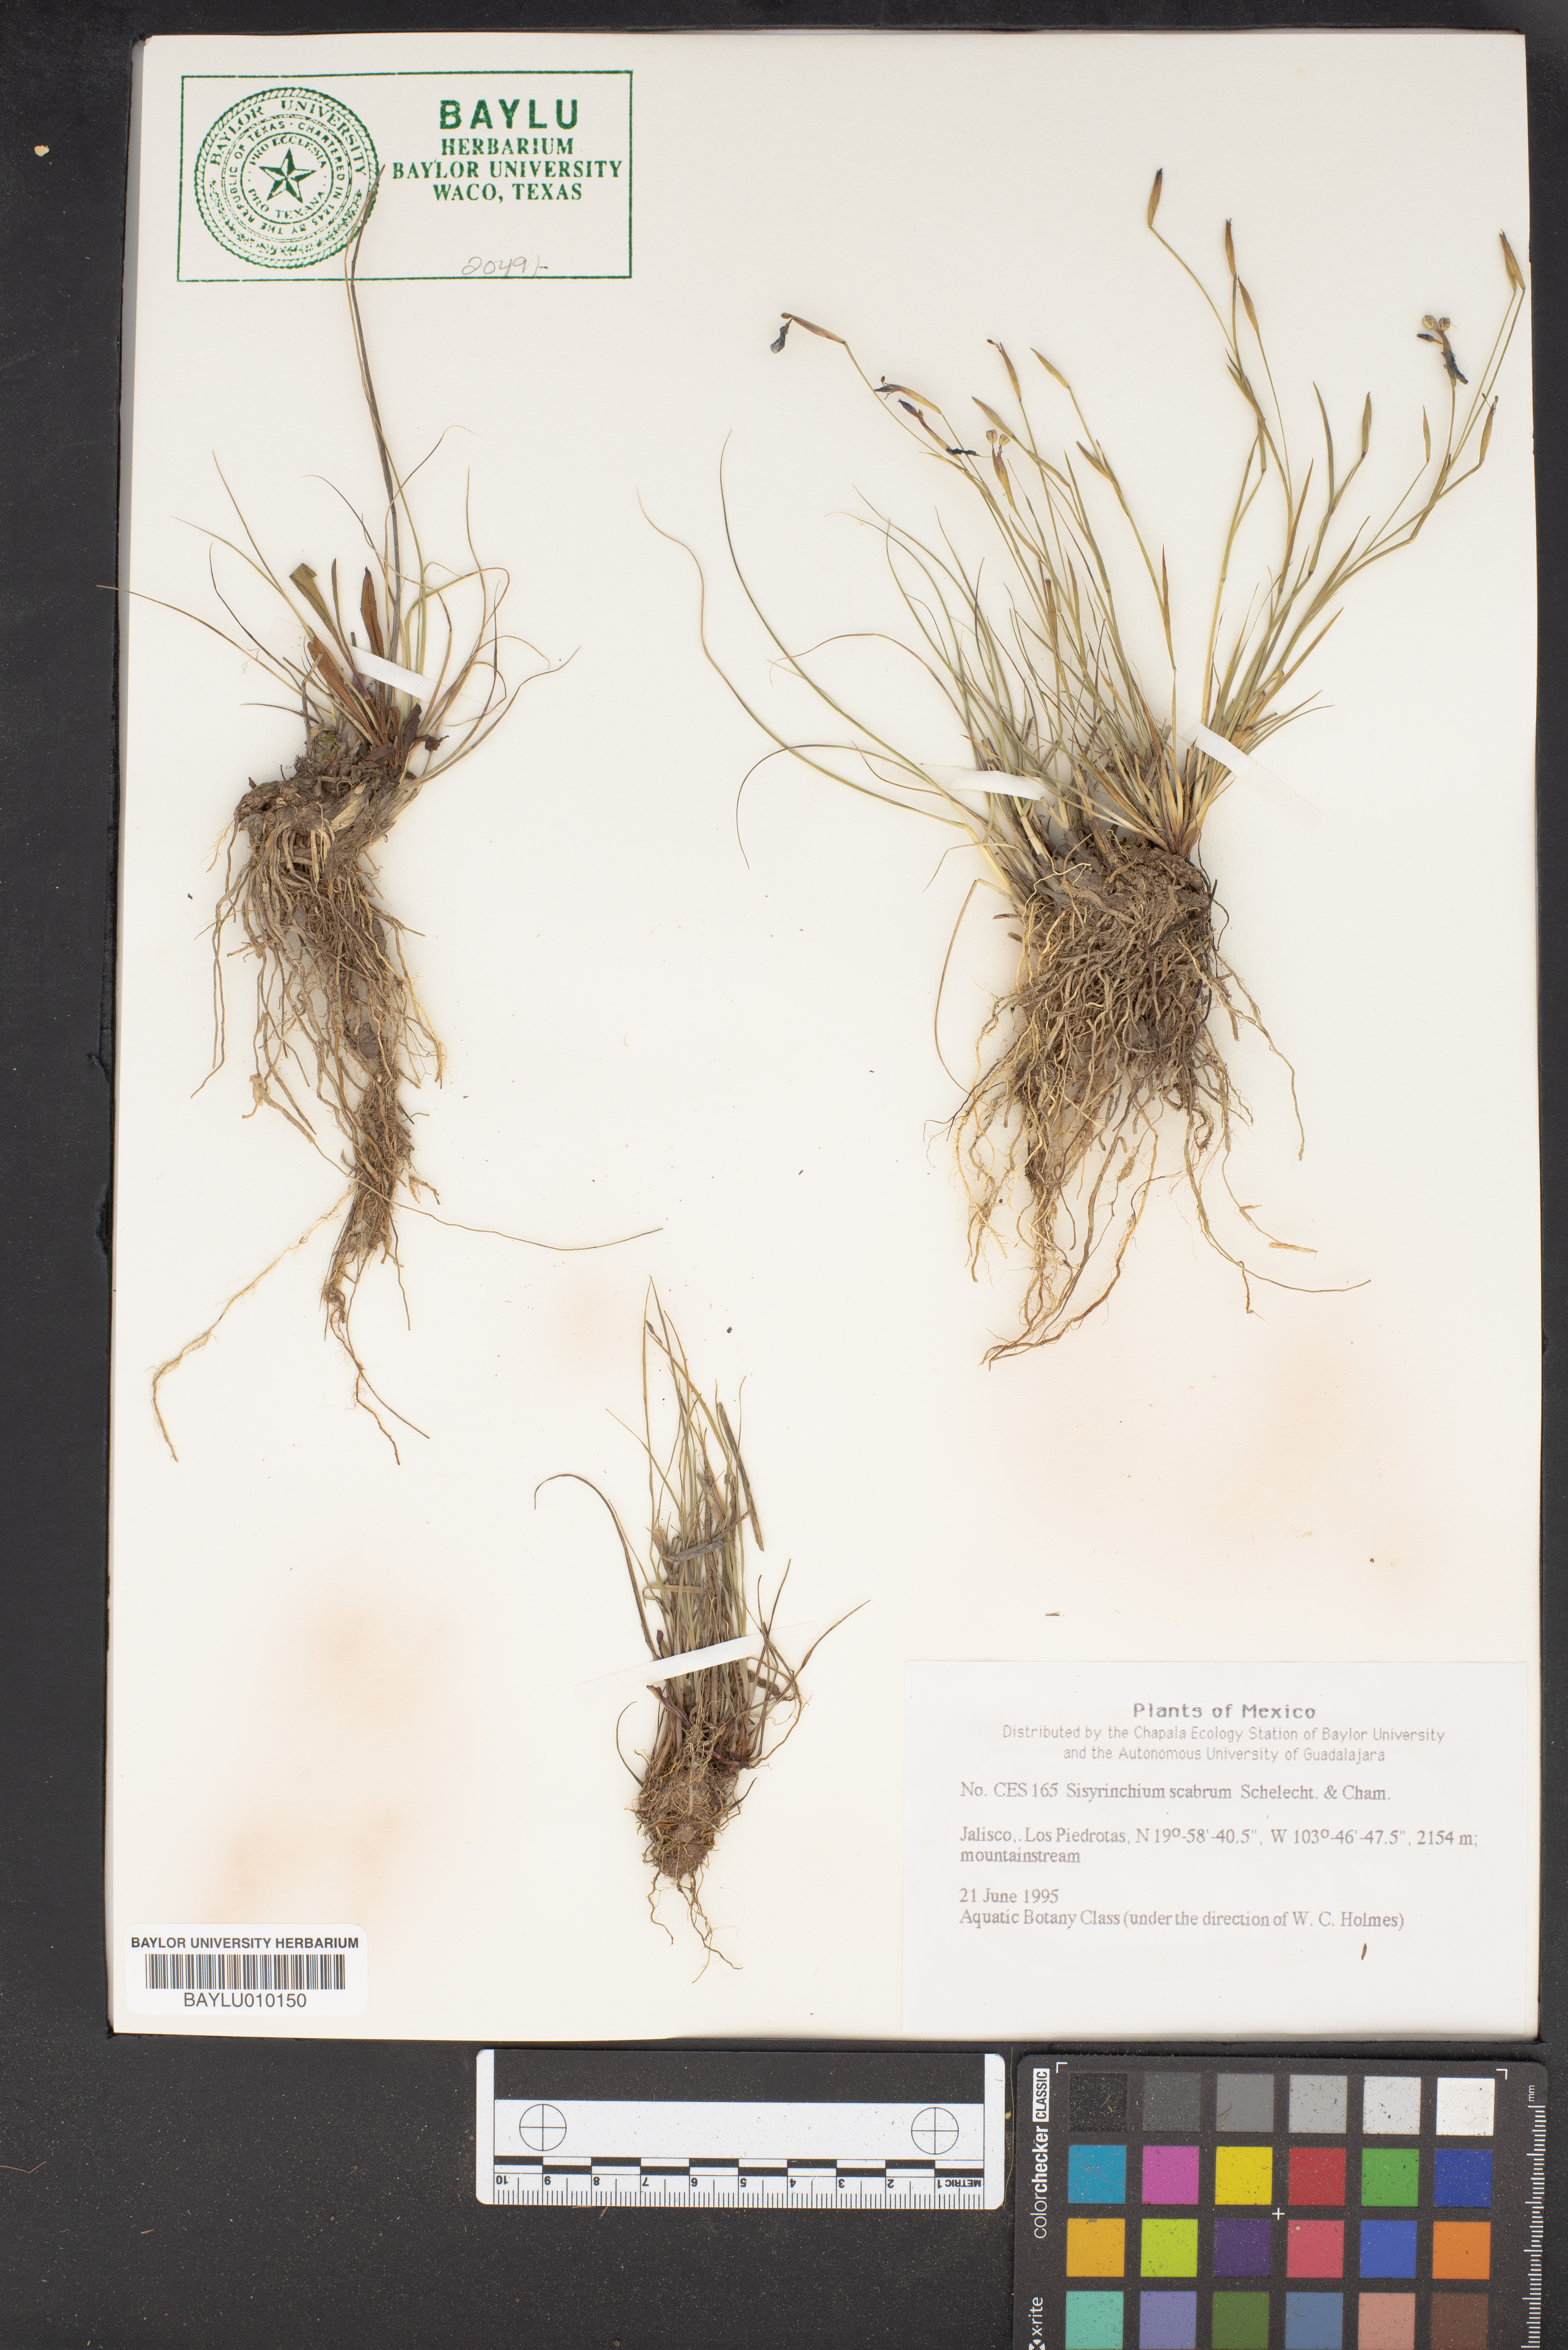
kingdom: Plantae
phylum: Tracheophyta
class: Liliopsida
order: Asparagales
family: Iridaceae
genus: Sisyrinchium
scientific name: Sisyrinchium scabrum
